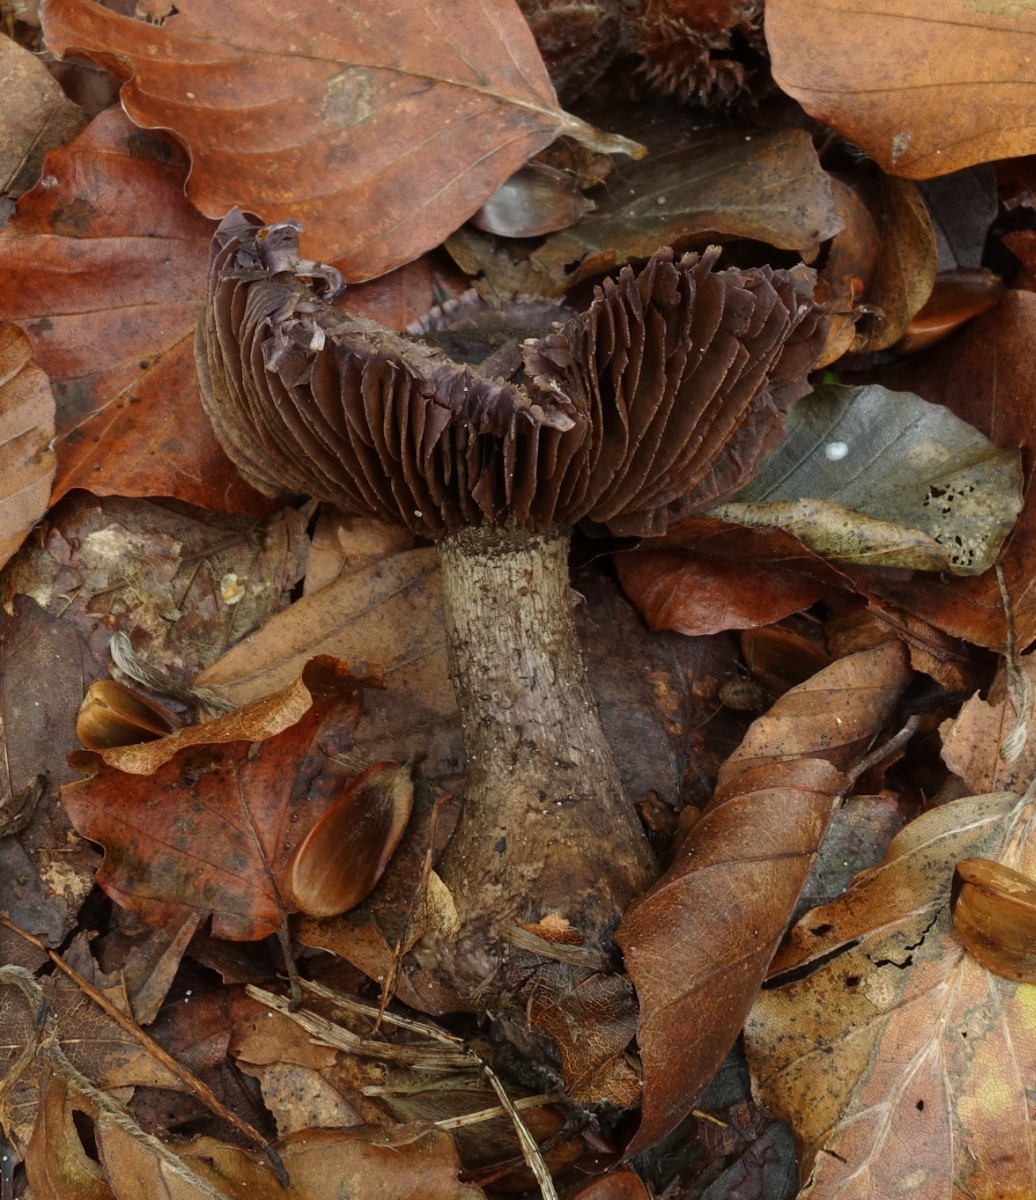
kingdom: Fungi
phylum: Basidiomycota
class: Agaricomycetes
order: Agaricales
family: Cortinariaceae
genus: Cortinarius
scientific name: Cortinarius violaceus
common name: mørkviolet slørhat
